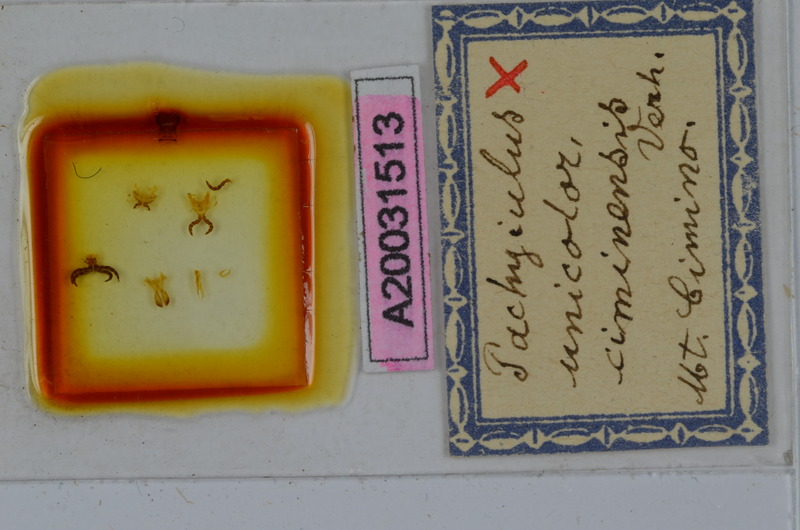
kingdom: Animalia
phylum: Arthropoda
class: Diplopoda
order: Julida
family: Julidae
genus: Pachyiulus
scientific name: Pachyiulus unicolor
